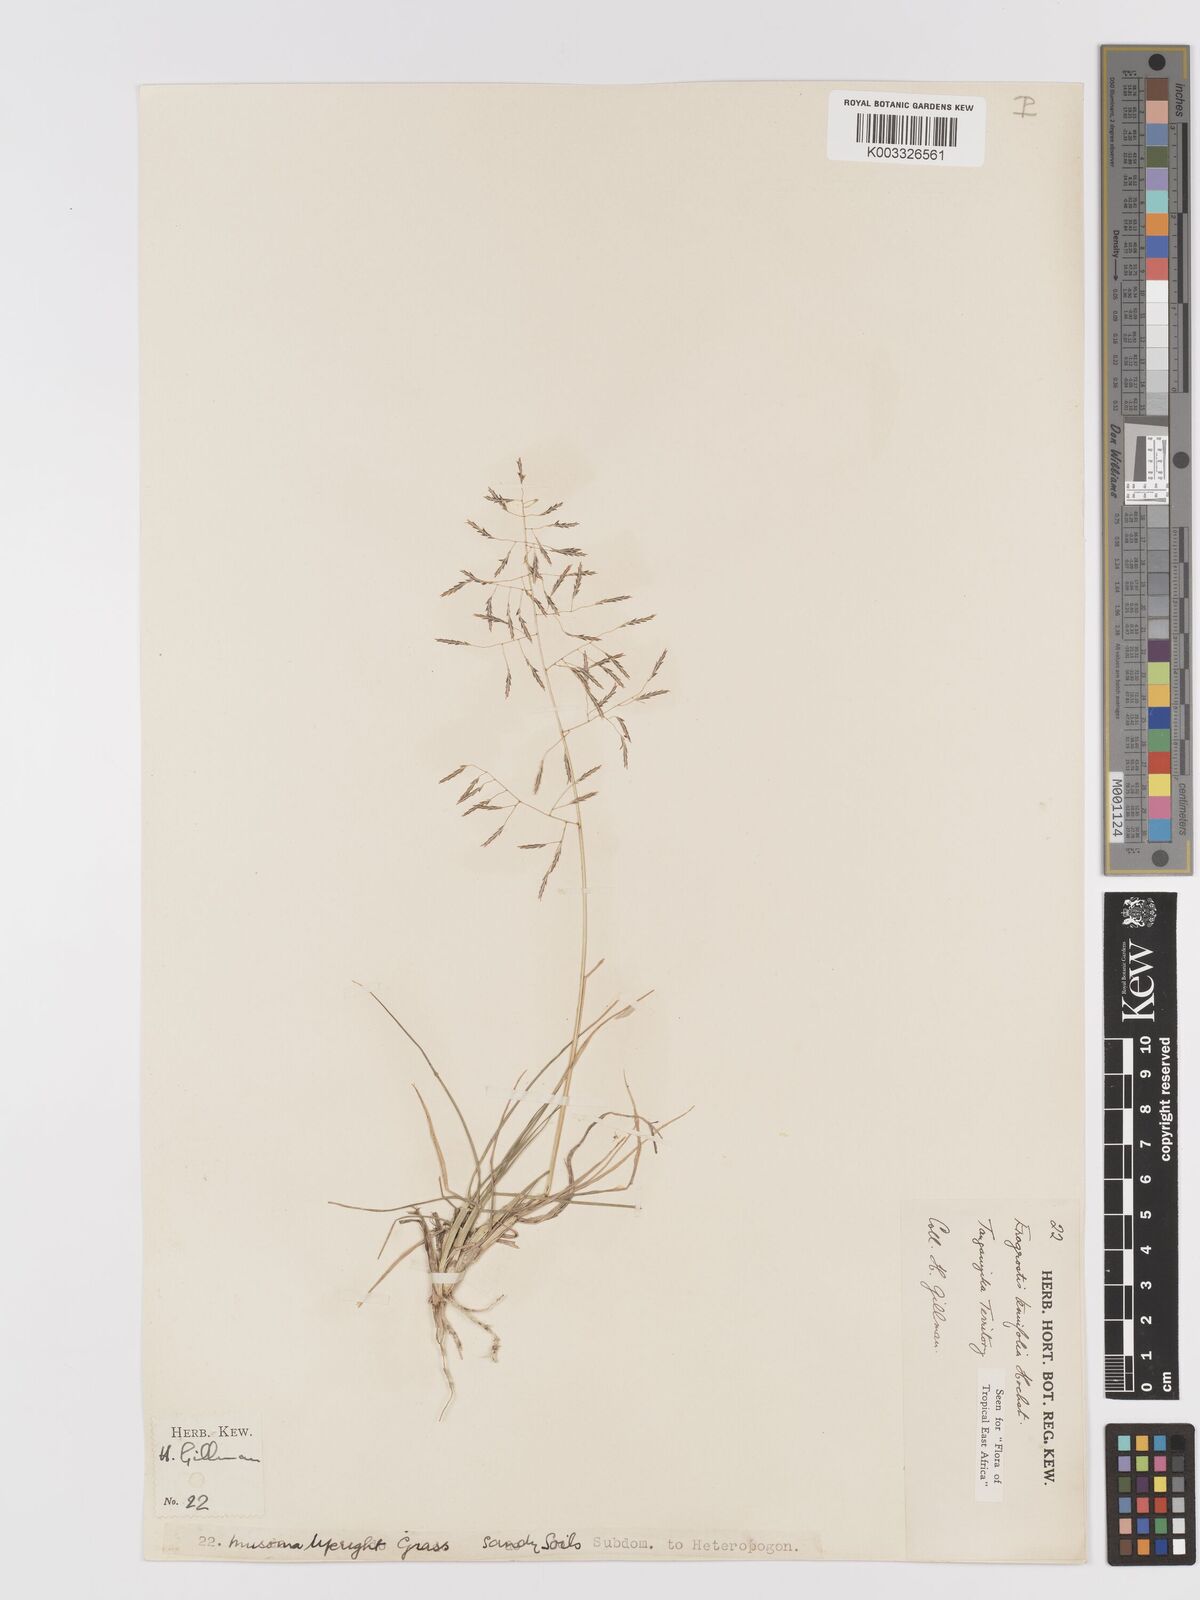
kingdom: Plantae
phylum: Tracheophyta
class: Liliopsida
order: Poales
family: Poaceae
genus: Eragrostis
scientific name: Eragrostis tenuifolia
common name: Elastic grass
